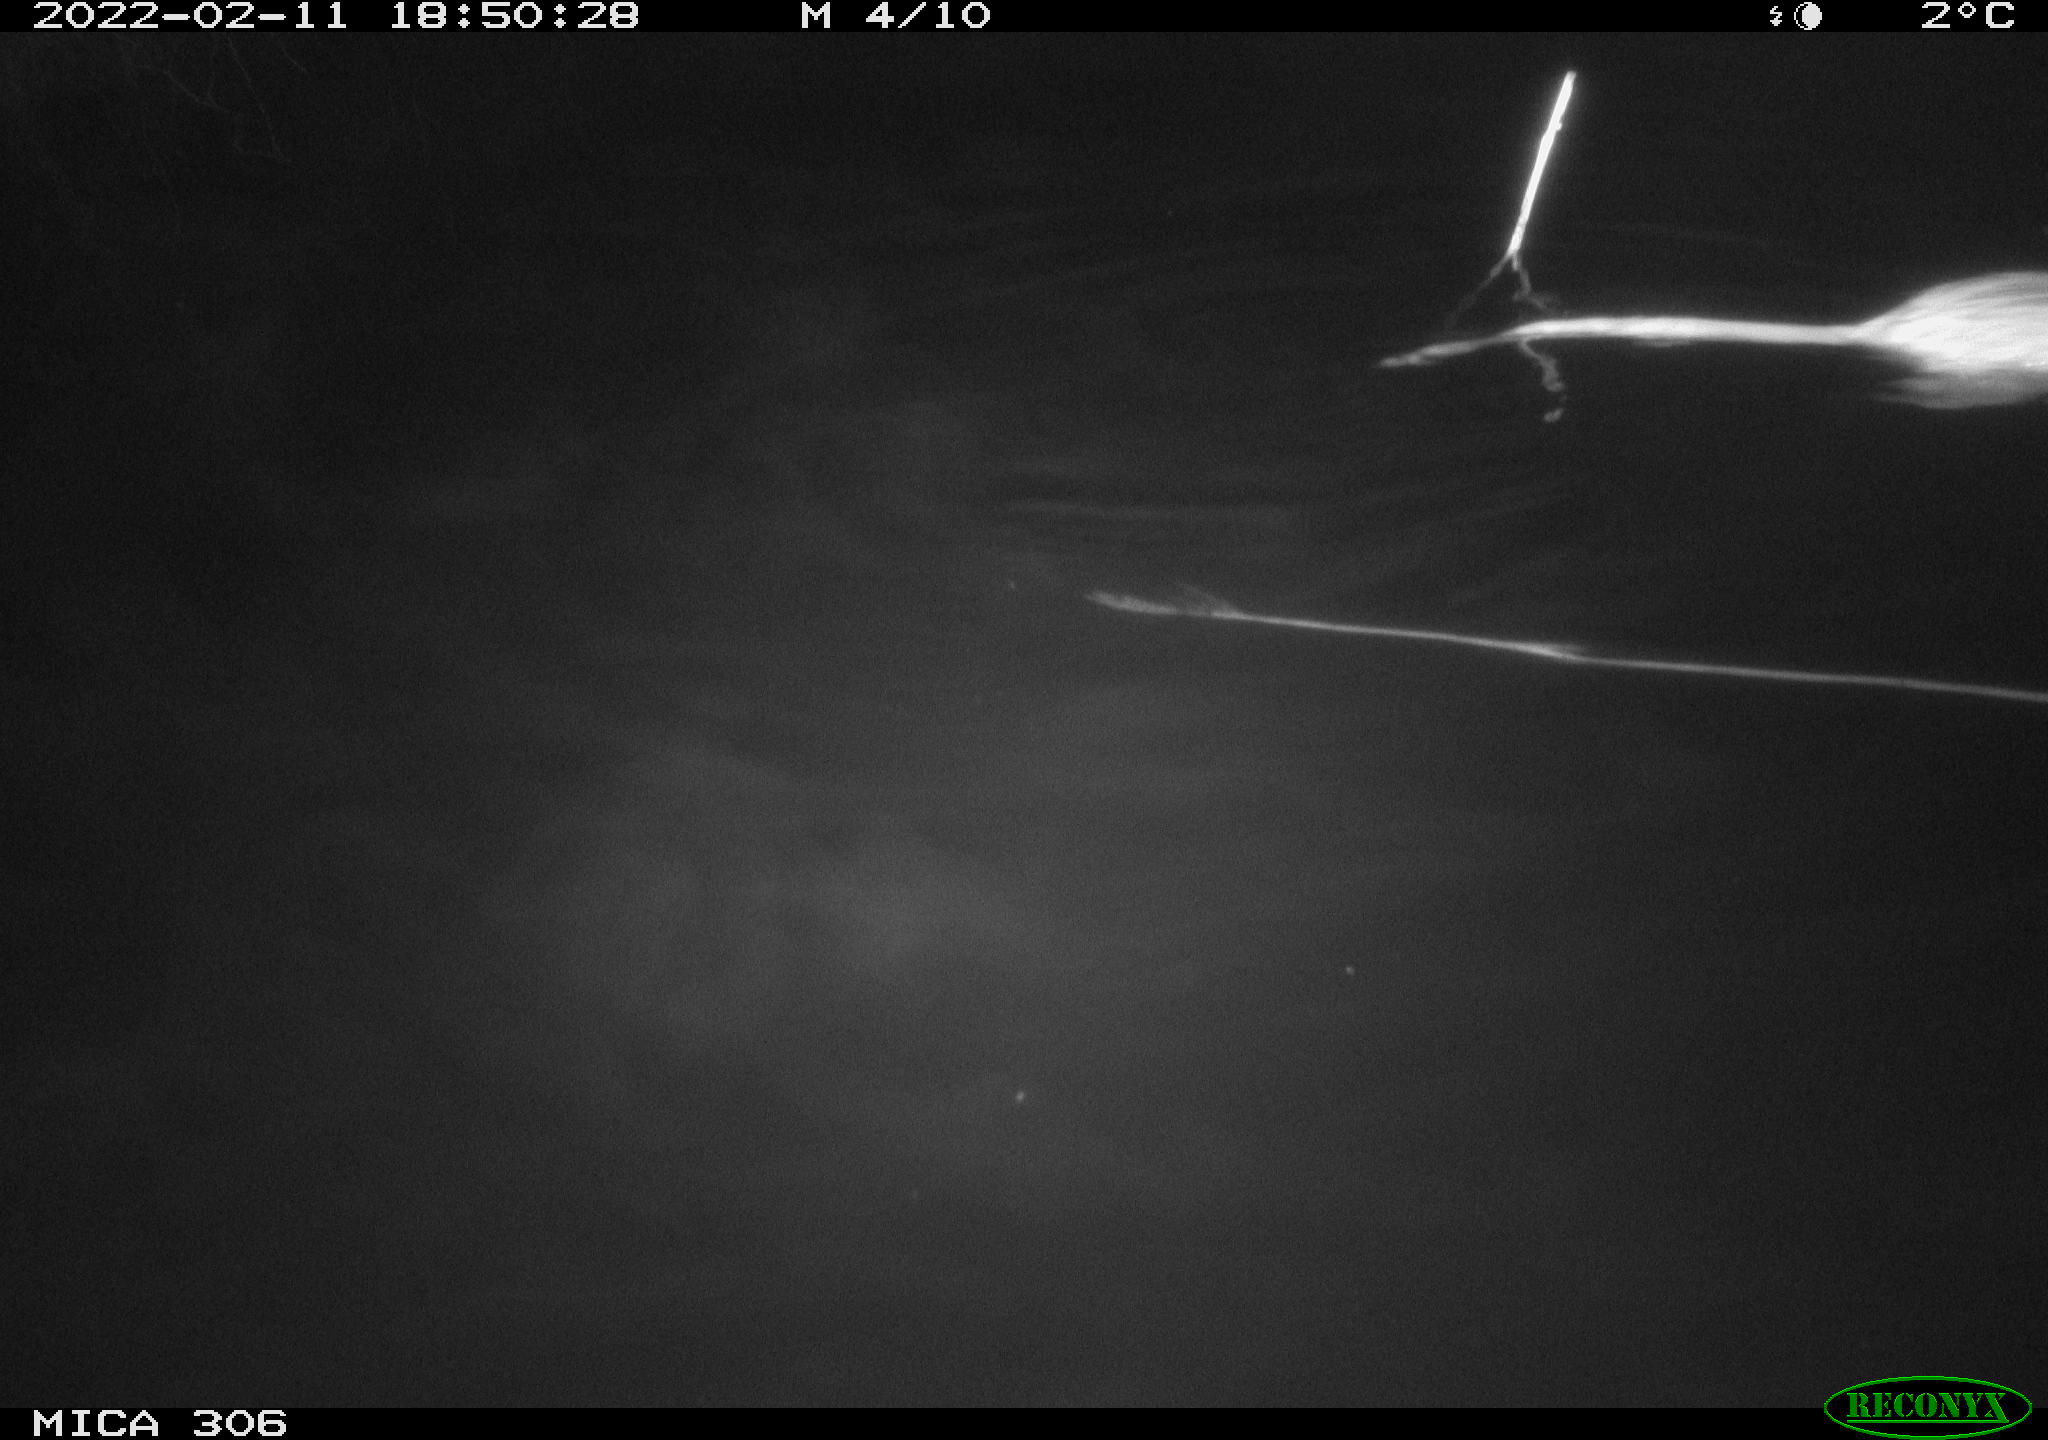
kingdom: Animalia
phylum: Chordata
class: Mammalia
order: Rodentia
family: Cricetidae
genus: Ondatra
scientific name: Ondatra zibethicus
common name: Muskrat
